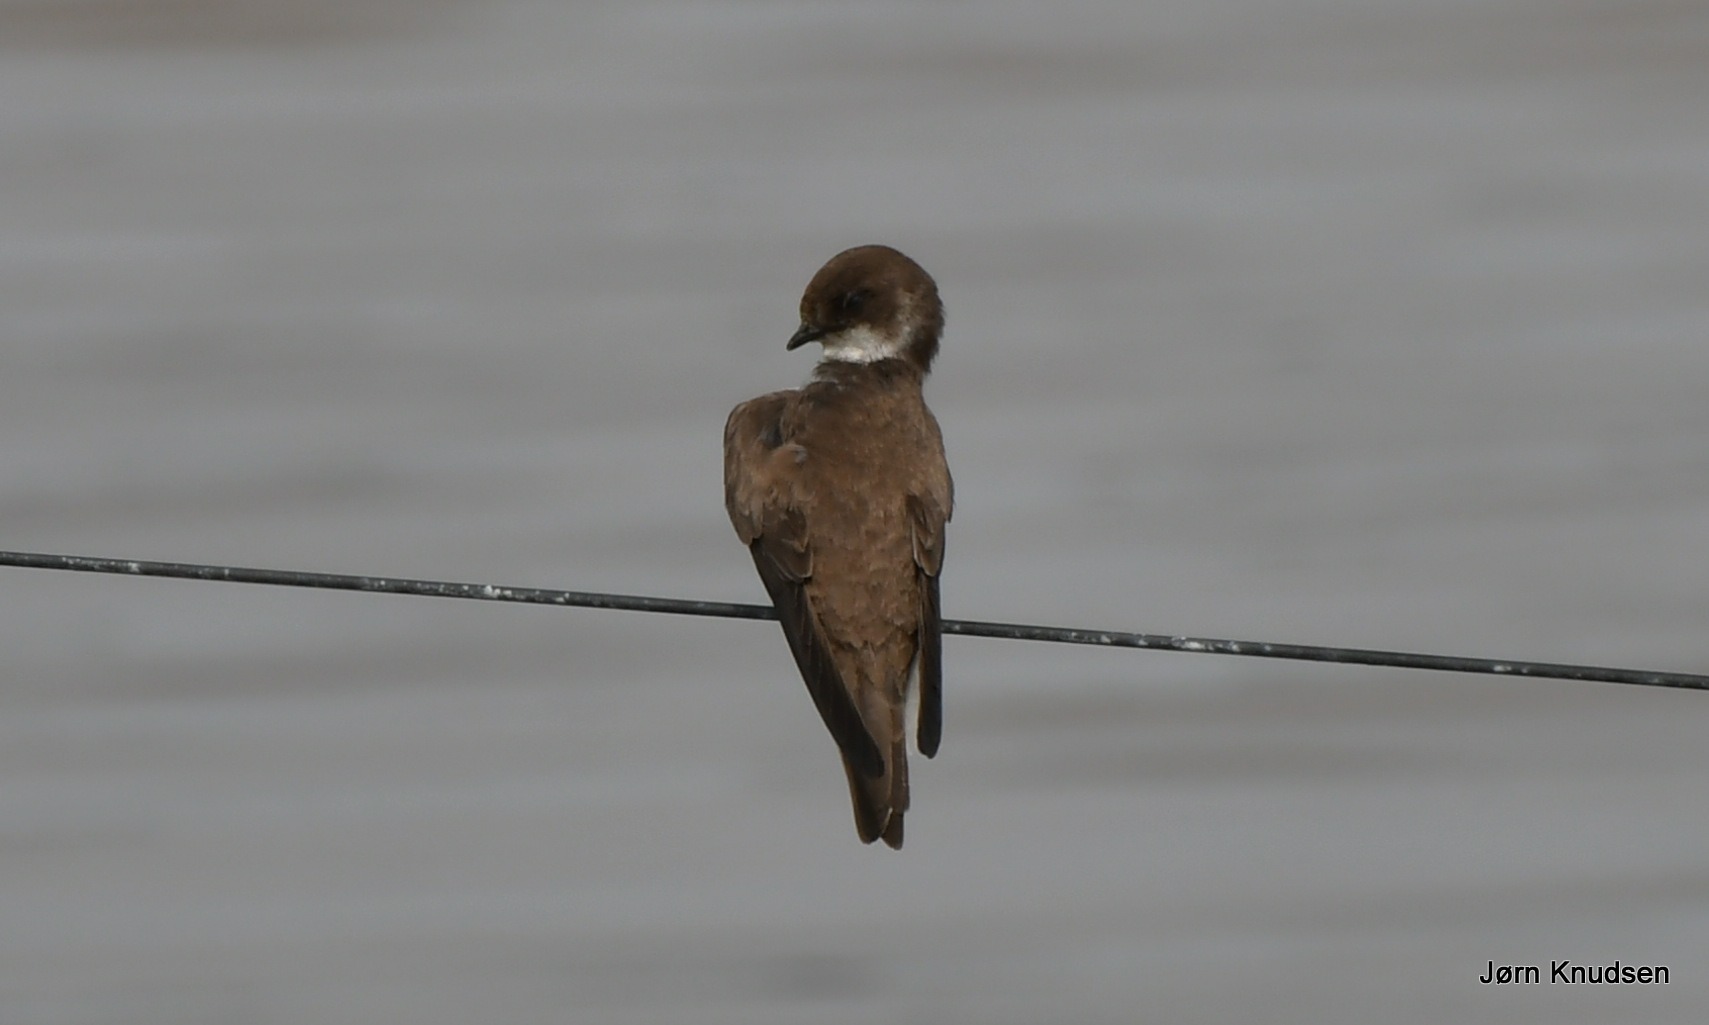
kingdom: Animalia
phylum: Chordata
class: Aves
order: Passeriformes
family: Hirundinidae
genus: Riparia
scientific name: Riparia riparia
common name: Digesvale
